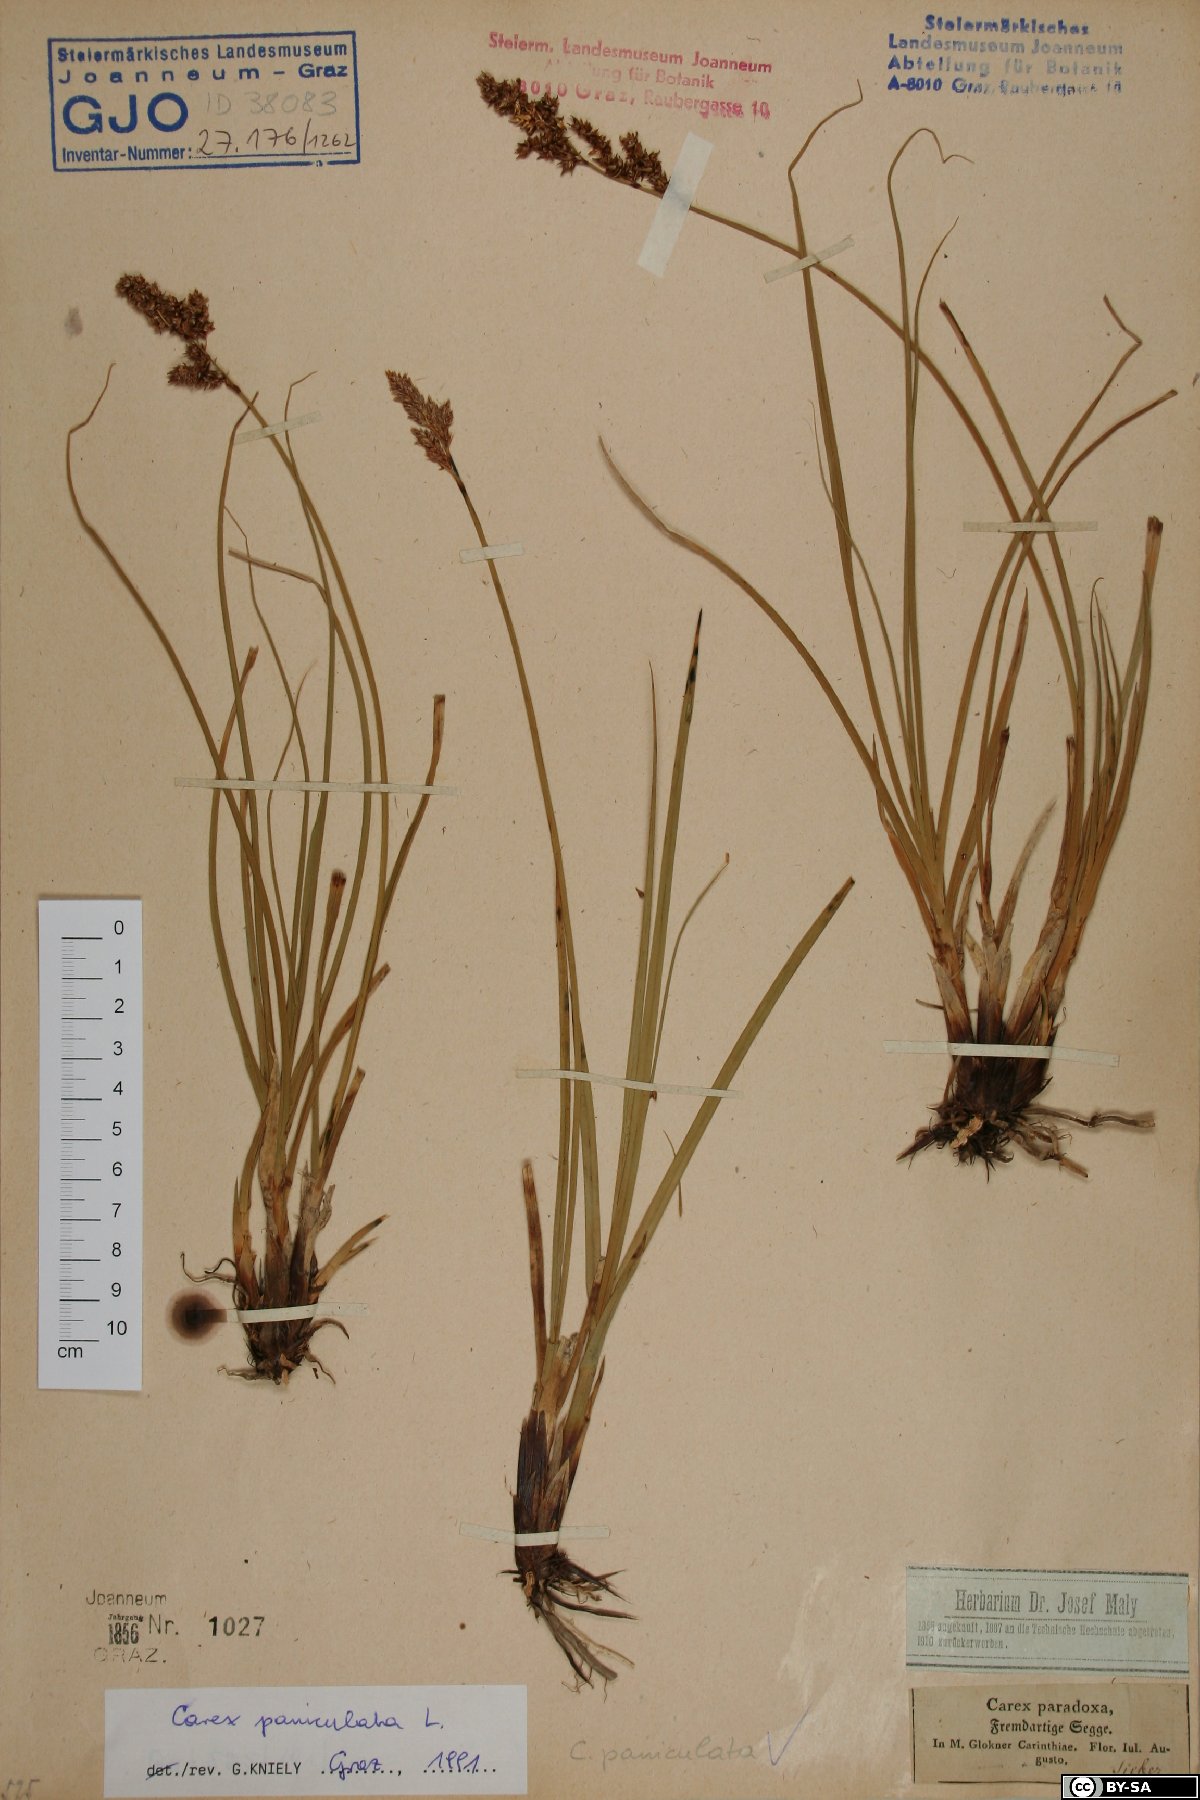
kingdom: Plantae
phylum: Tracheophyta
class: Liliopsida
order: Poales
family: Cyperaceae
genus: Carex
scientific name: Carex paniculata
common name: Greater tussock-sedge
